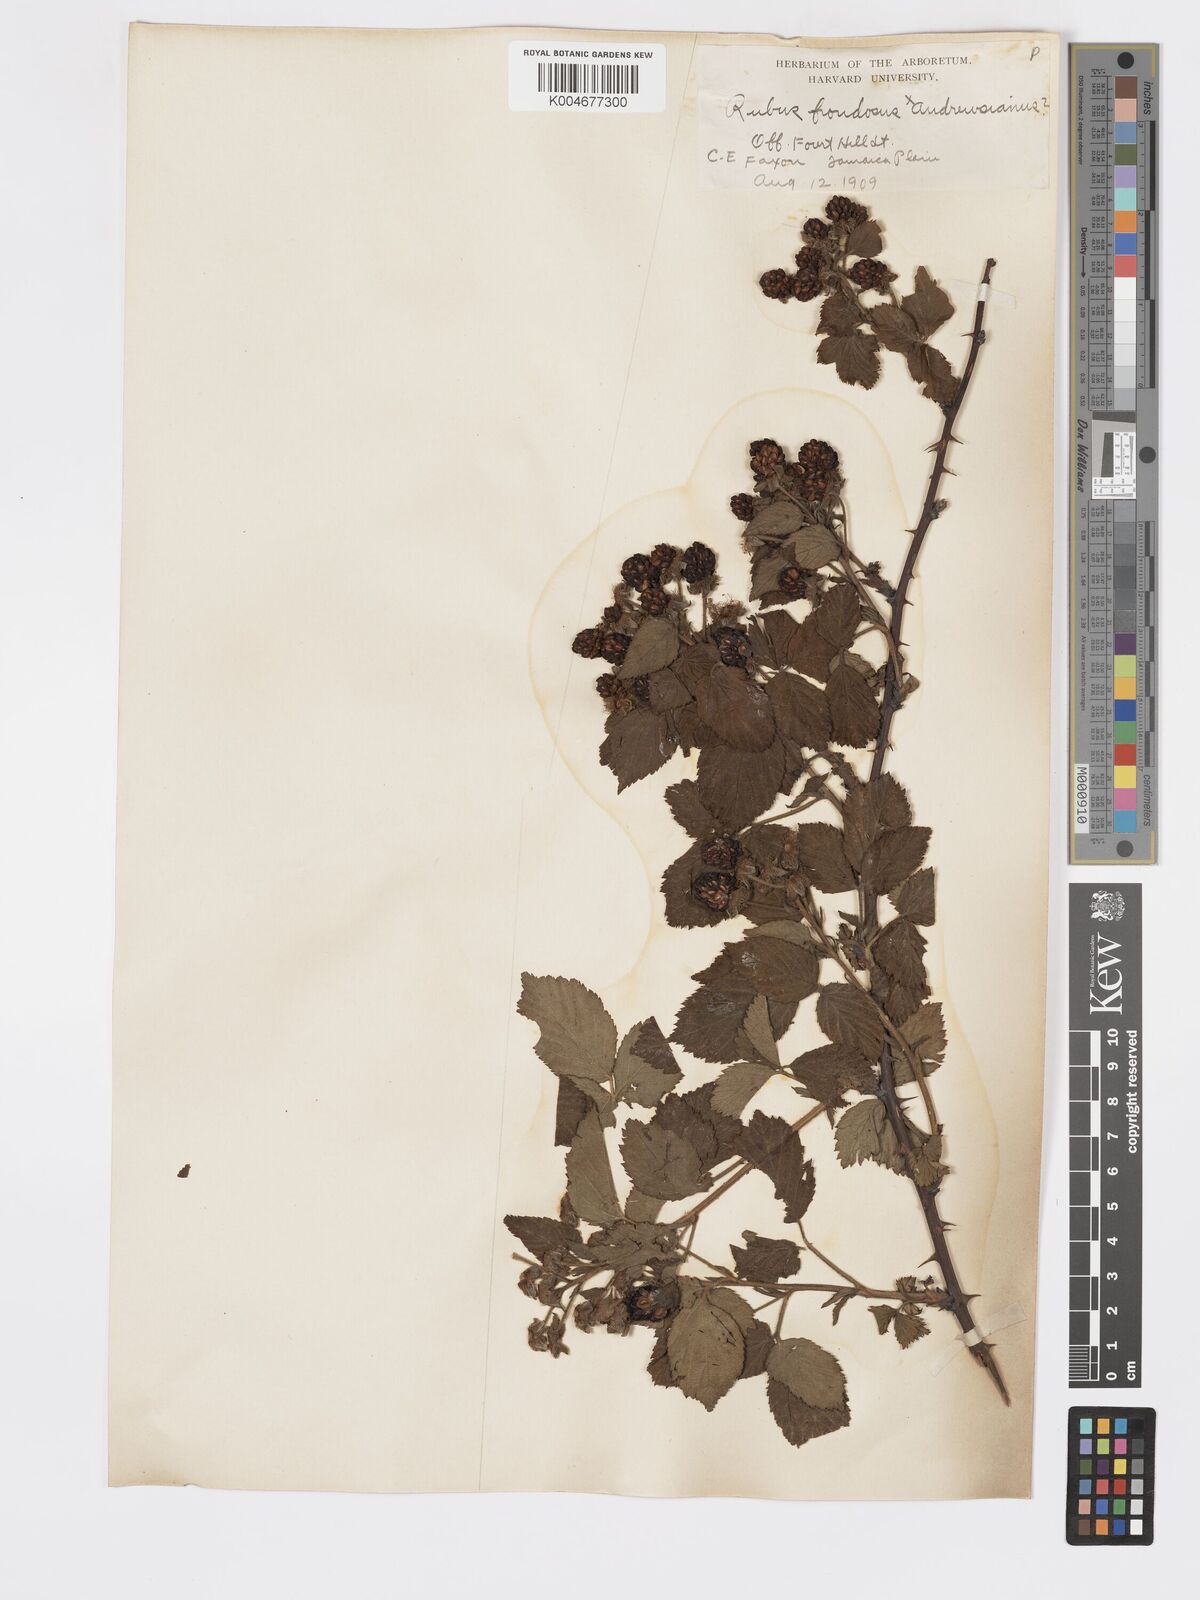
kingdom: Plantae
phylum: Tracheophyta
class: Magnoliopsida
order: Rosales
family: Rosaceae
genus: Rubus
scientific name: Rubus frondosus
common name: Yankee blackberry
